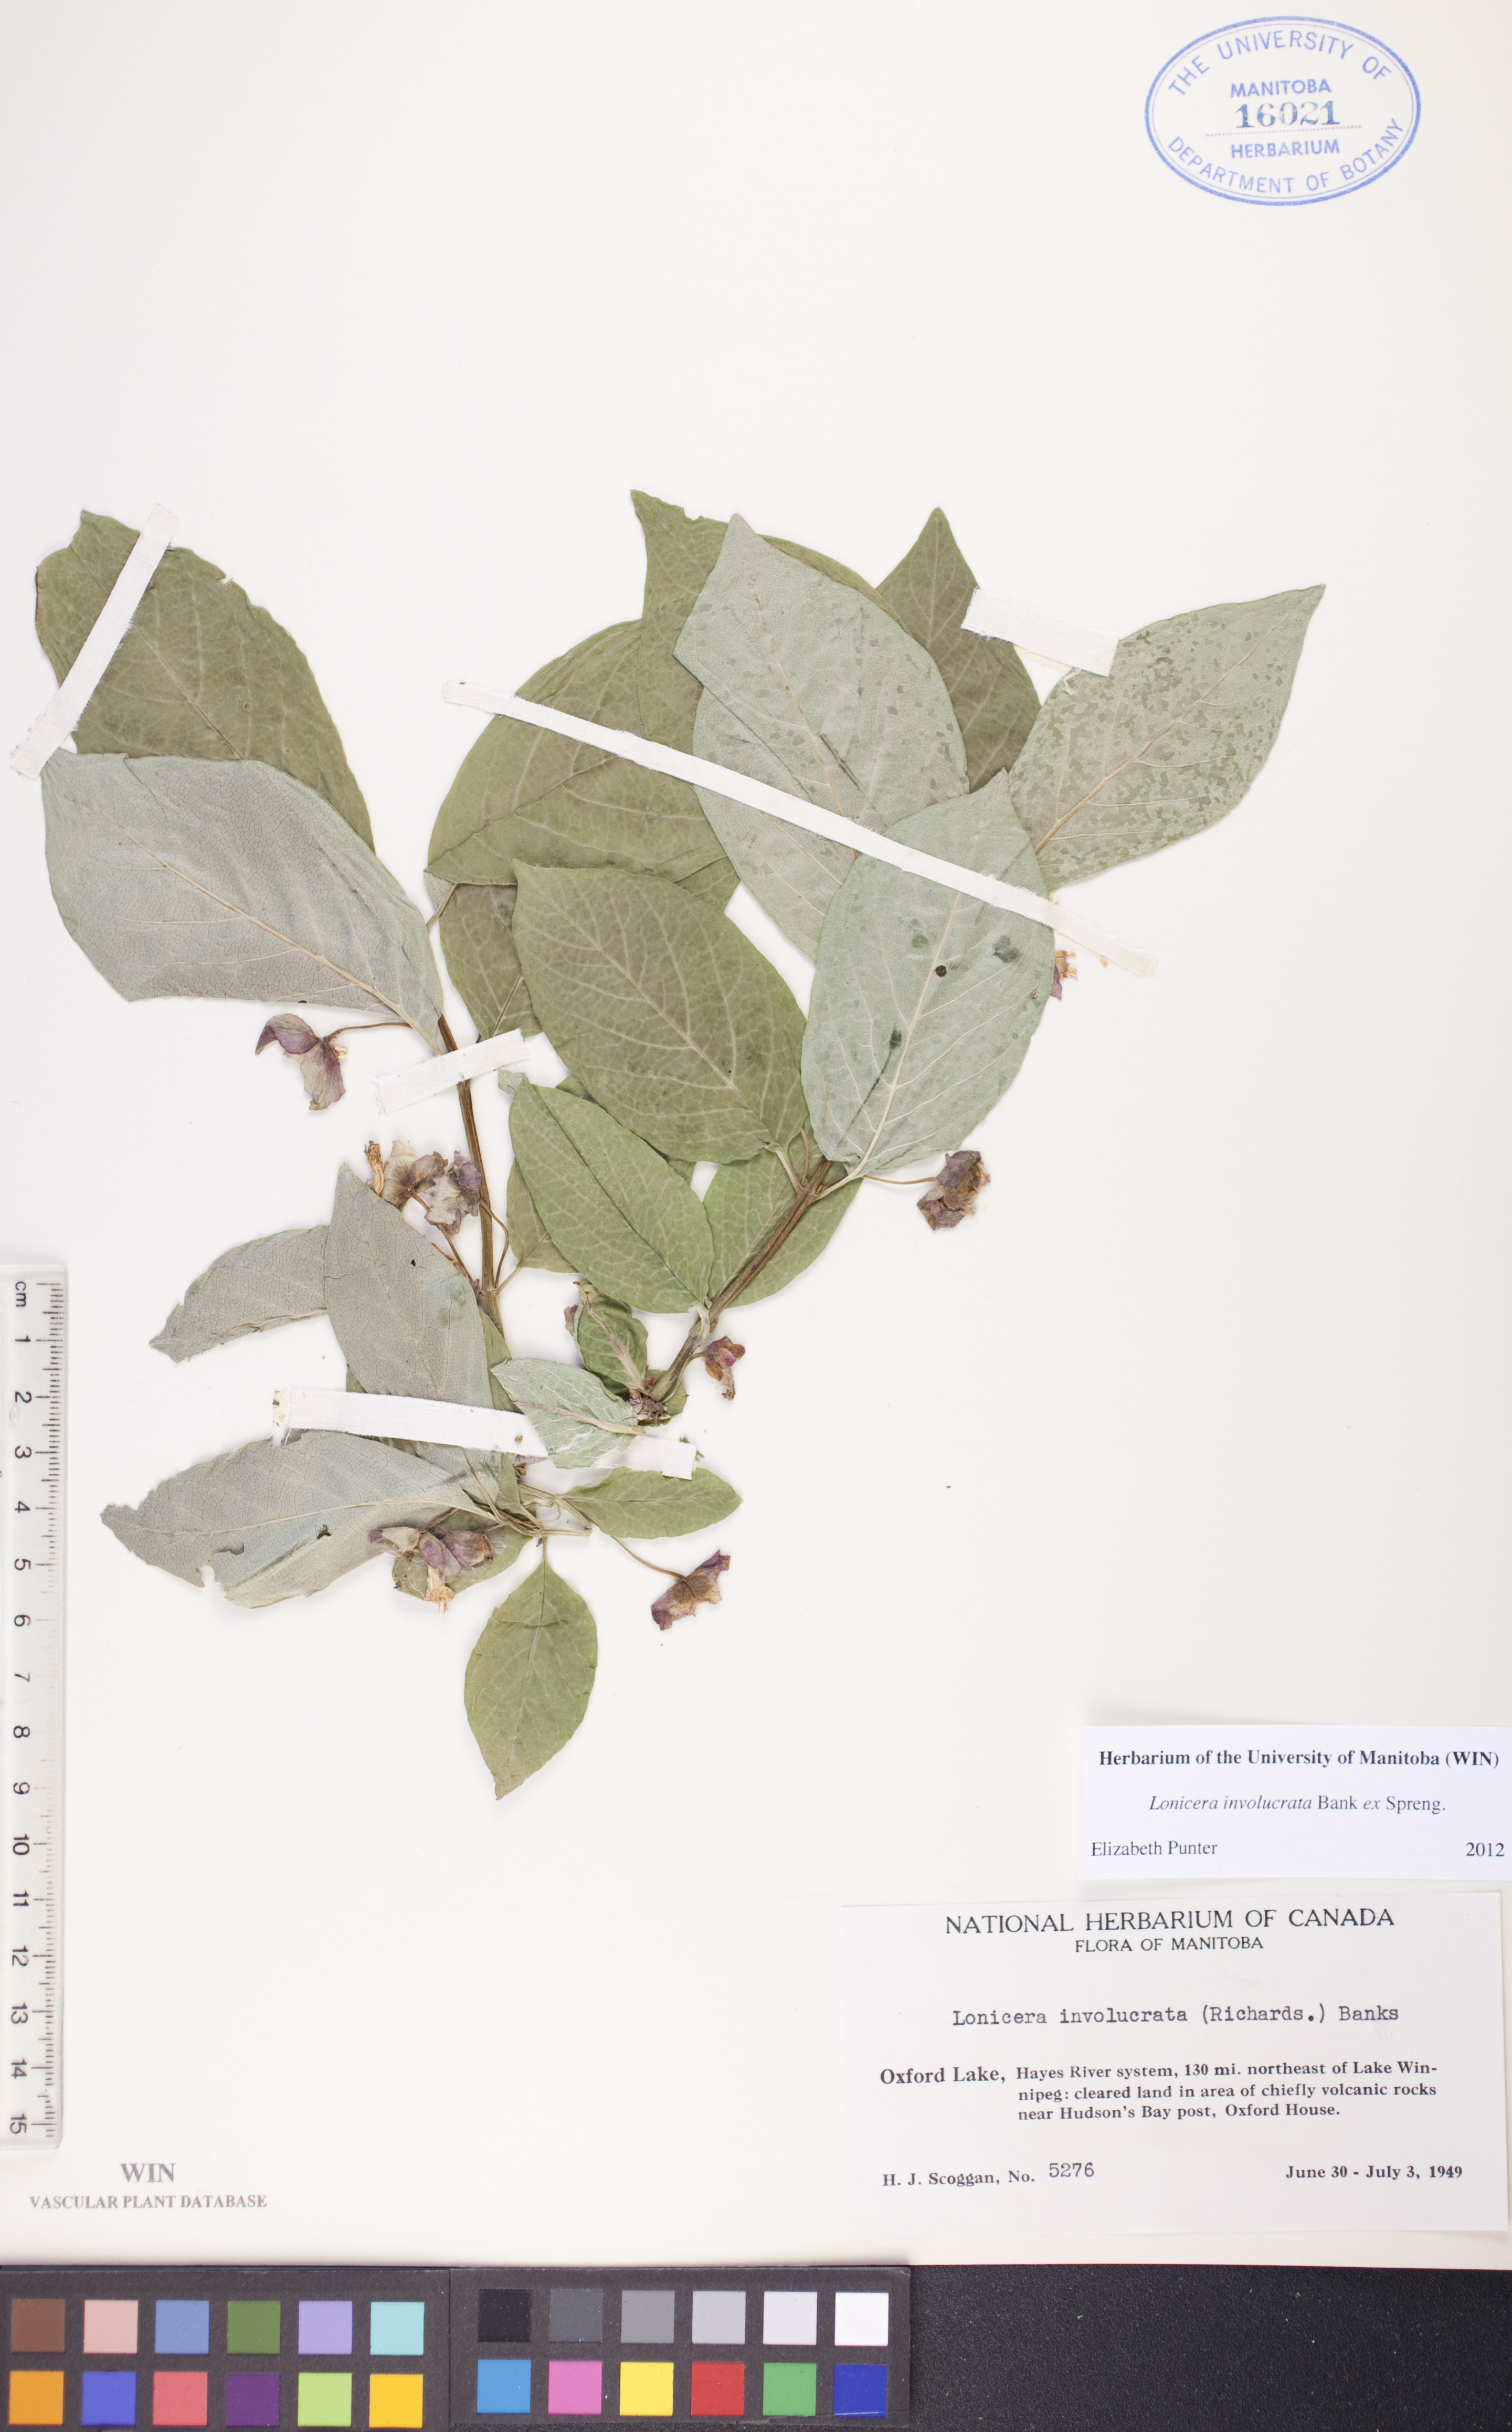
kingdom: Plantae
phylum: Tracheophyta
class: Magnoliopsida
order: Dipsacales
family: Caprifoliaceae
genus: Lonicera
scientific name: Lonicera involucrata
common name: Californian honeysuckle
